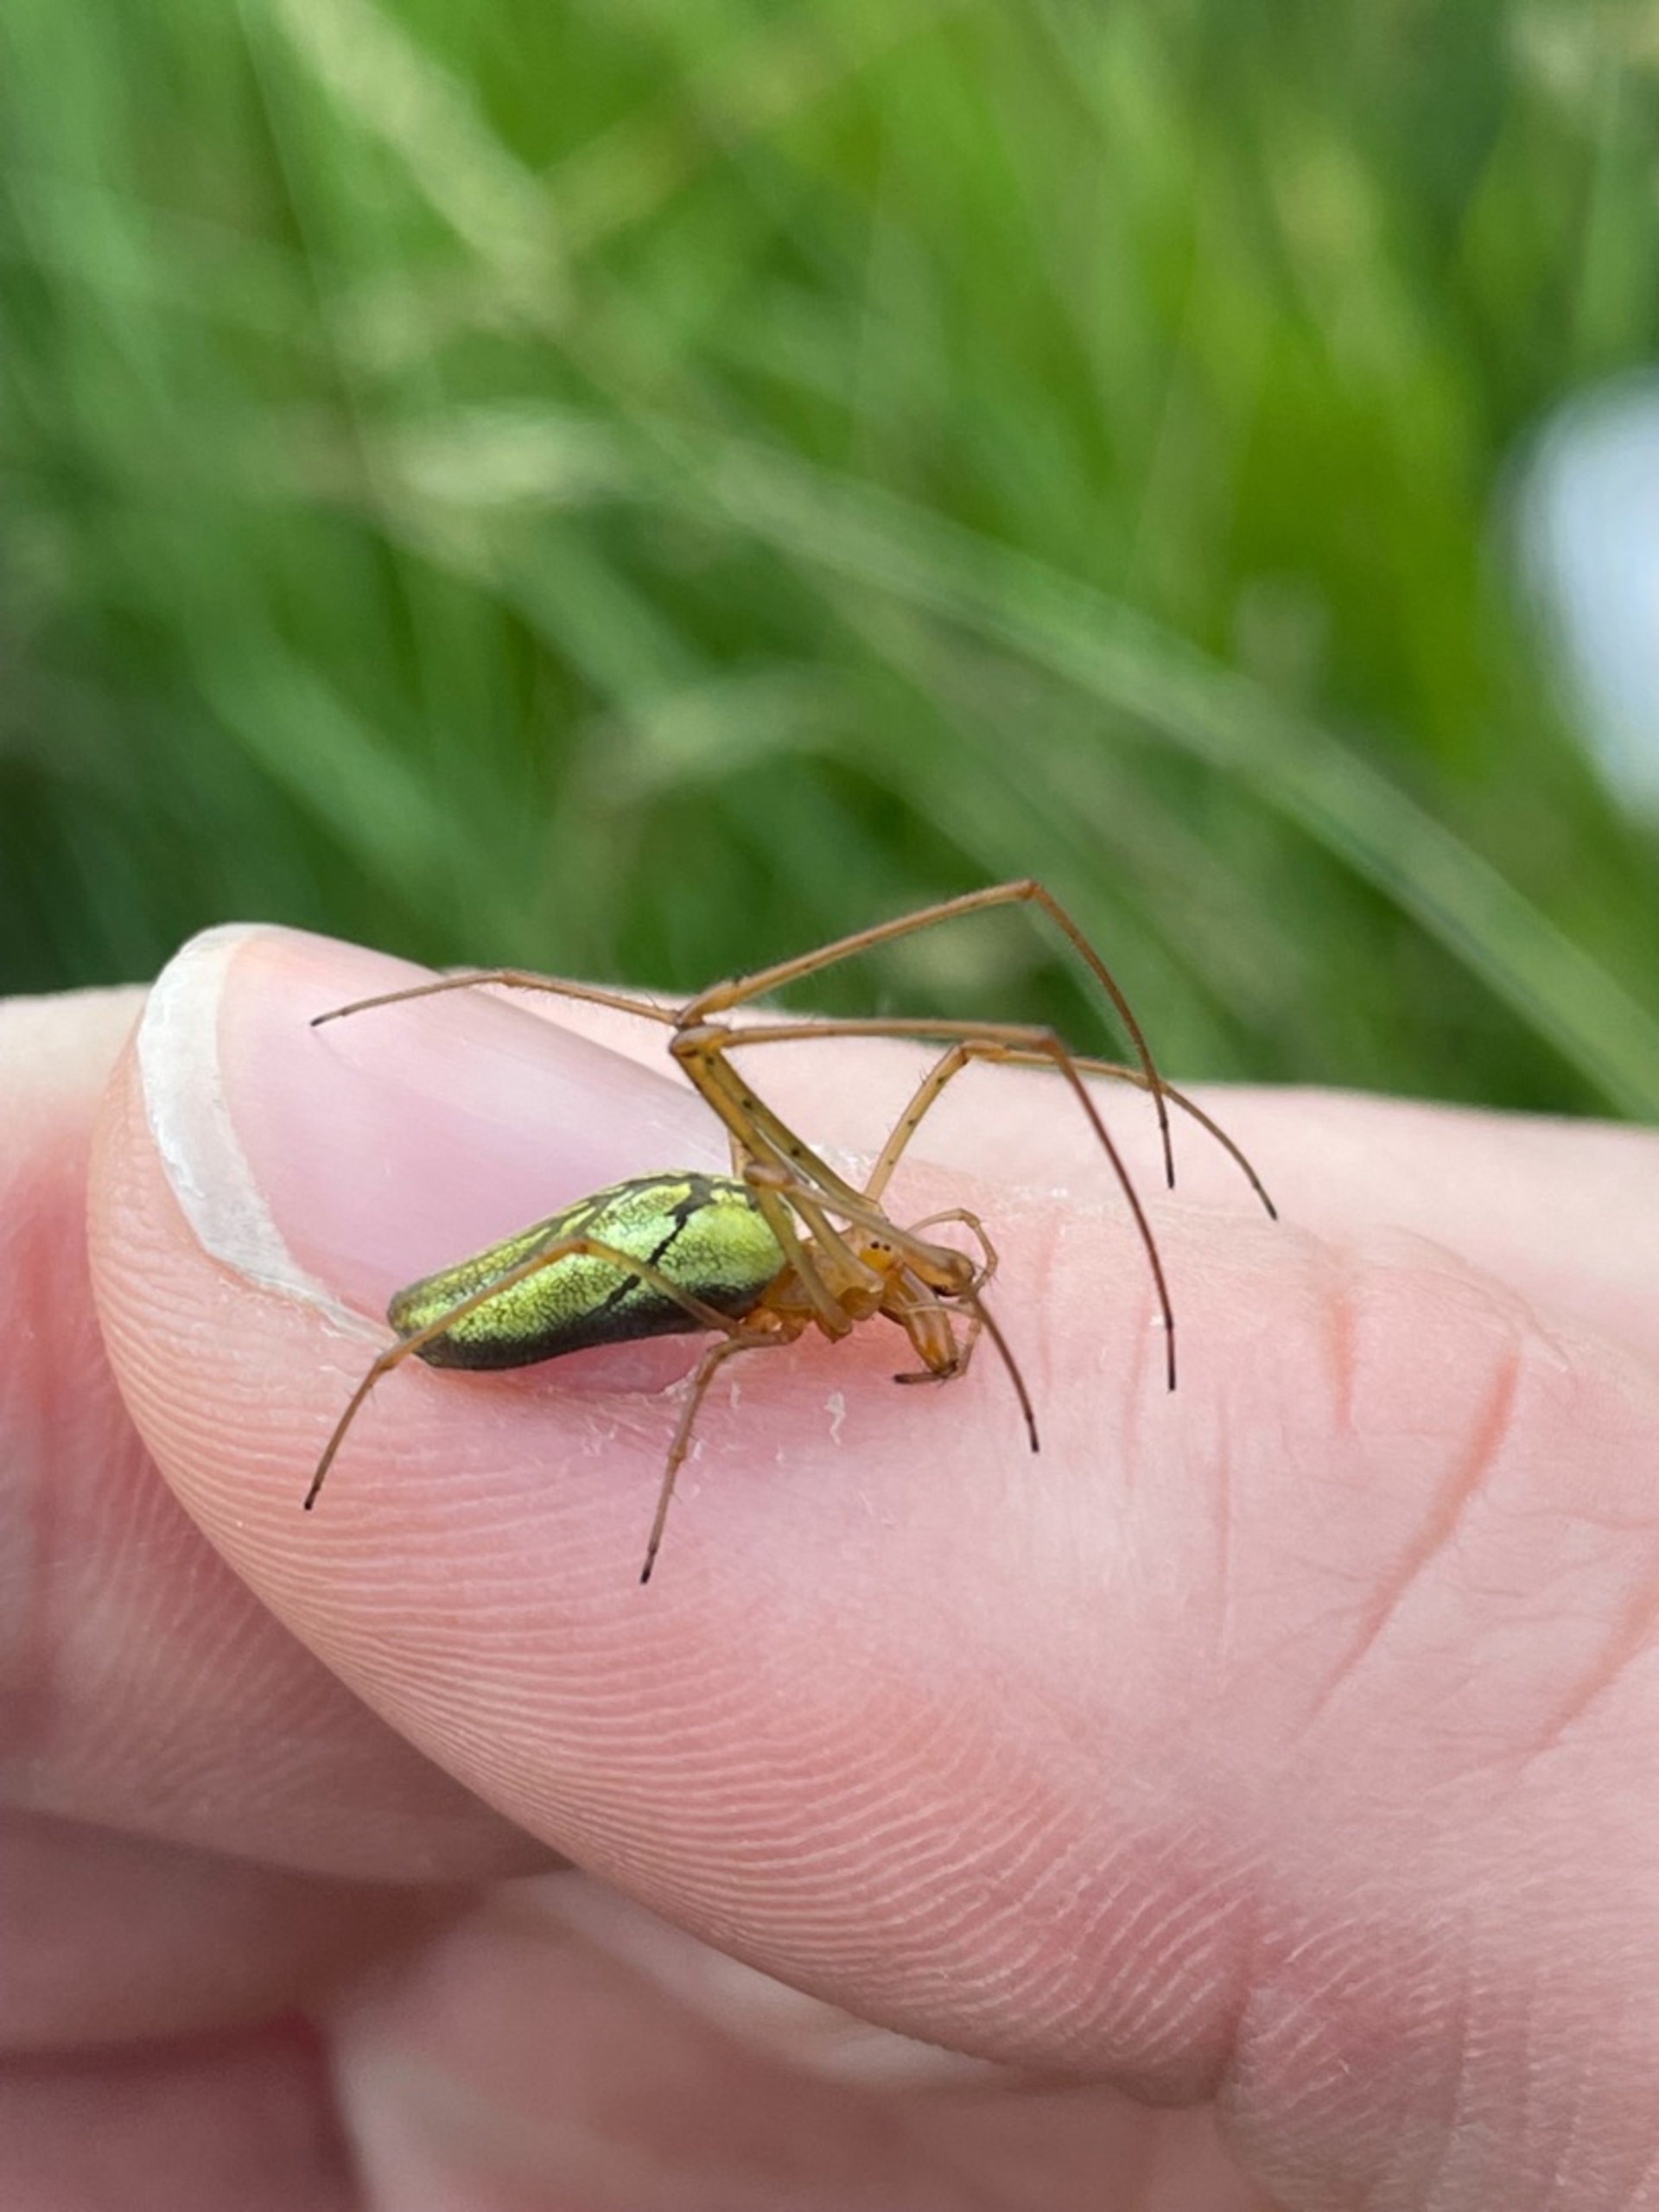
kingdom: Animalia
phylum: Arthropoda
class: Arachnida
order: Araneae
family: Tetragnathidae
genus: Tetragnatha
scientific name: Tetragnatha extensa
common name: Engstavedderkop
